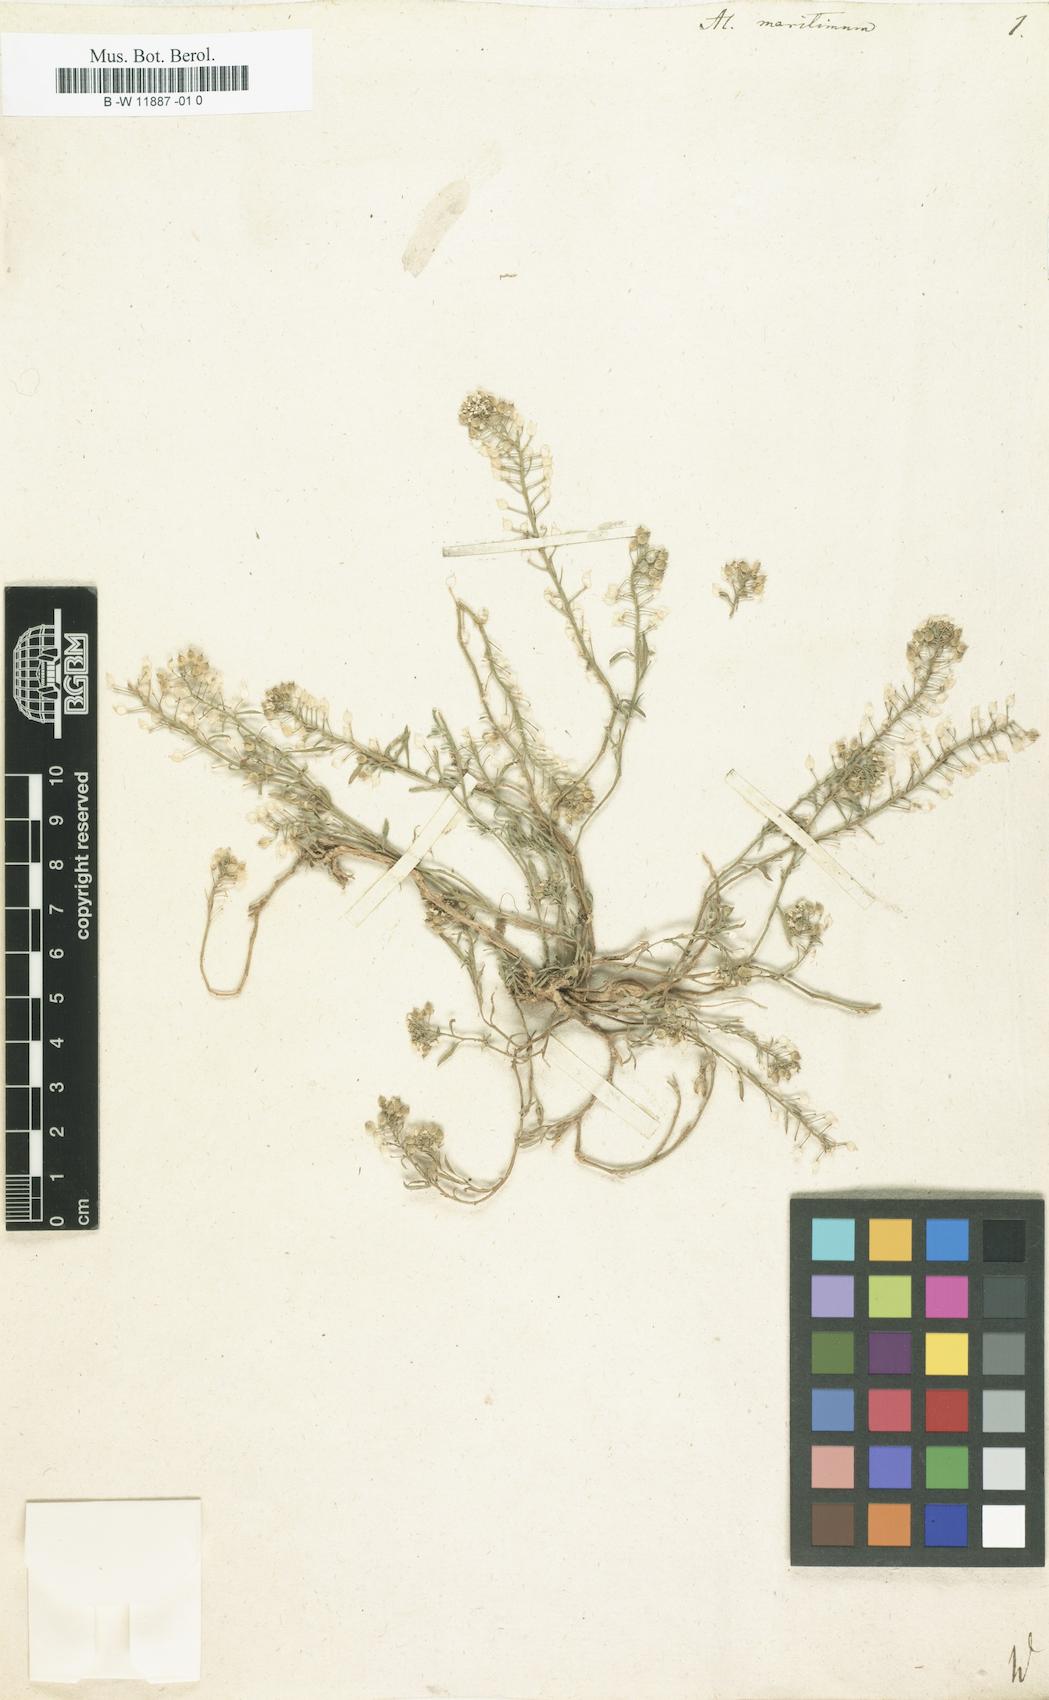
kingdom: Plantae
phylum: Tracheophyta
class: Magnoliopsida
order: Brassicales
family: Brassicaceae
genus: Lobularia
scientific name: Lobularia maritima
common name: Sweet alison
